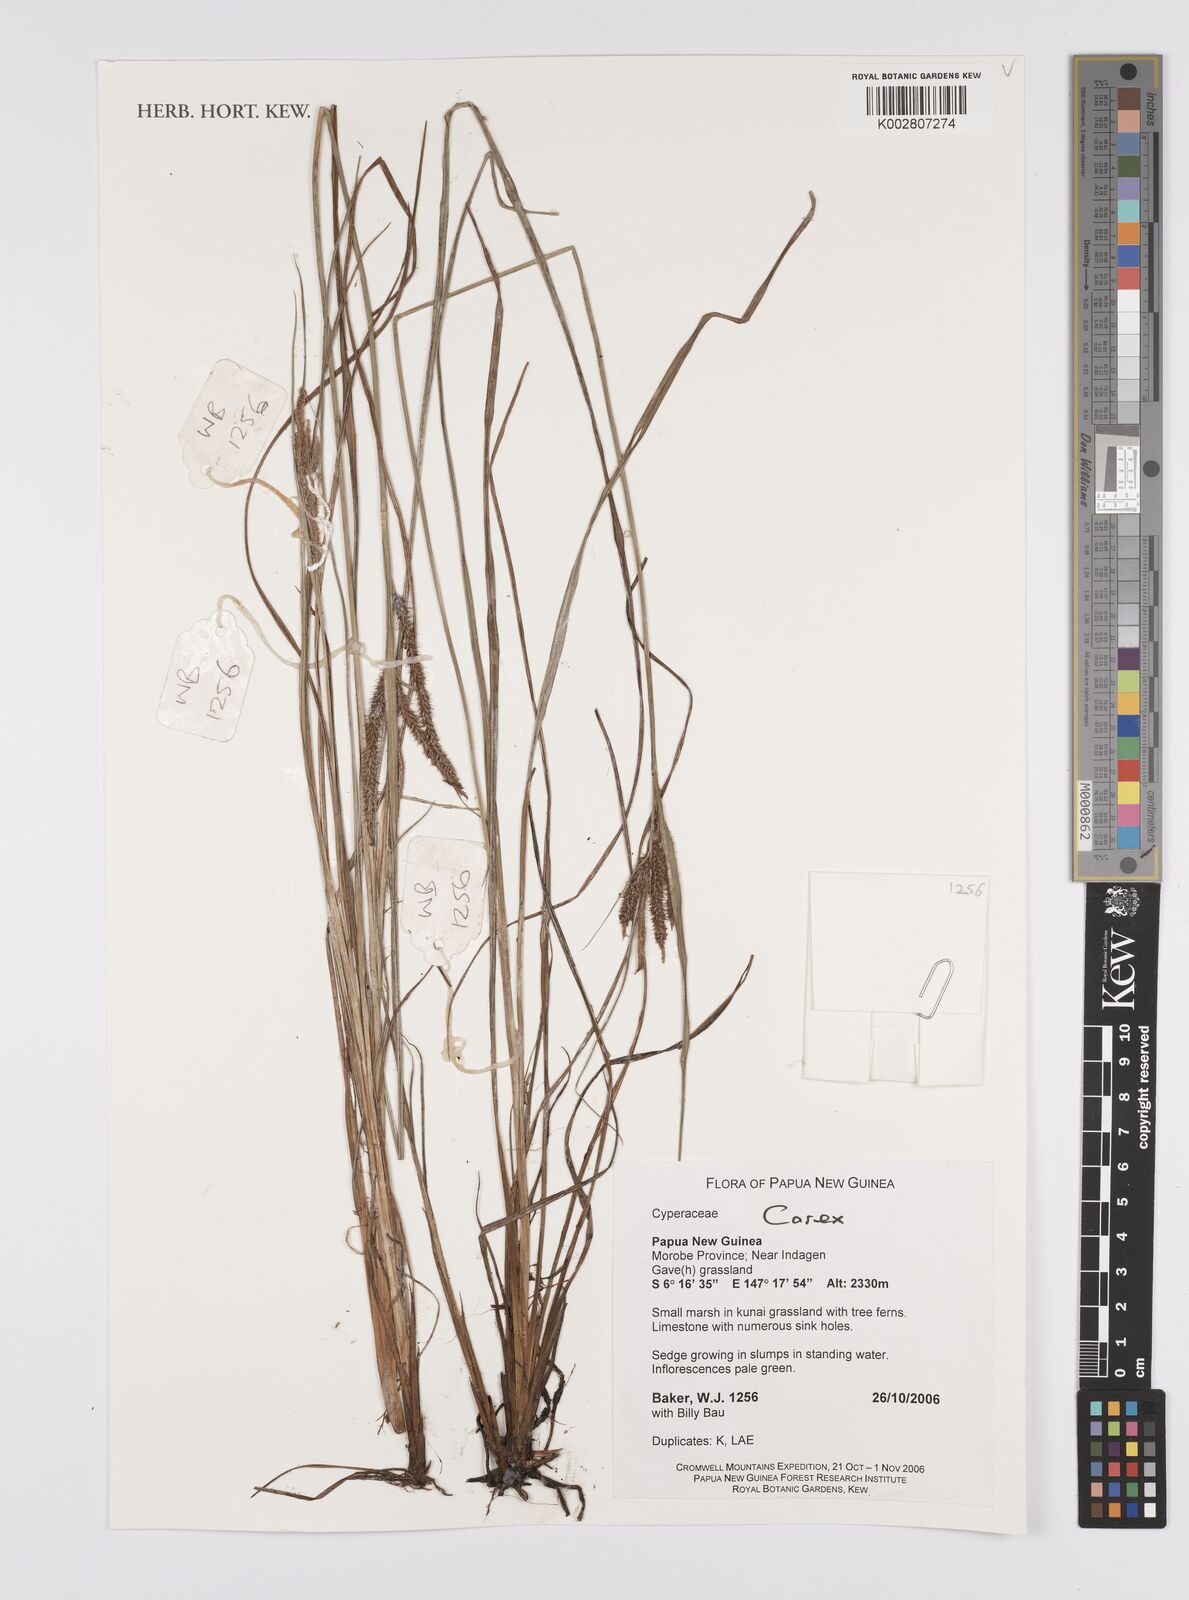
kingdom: Plantae
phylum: Tracheophyta
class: Liliopsida
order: Poales
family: Cyperaceae
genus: Carex
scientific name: Carex
